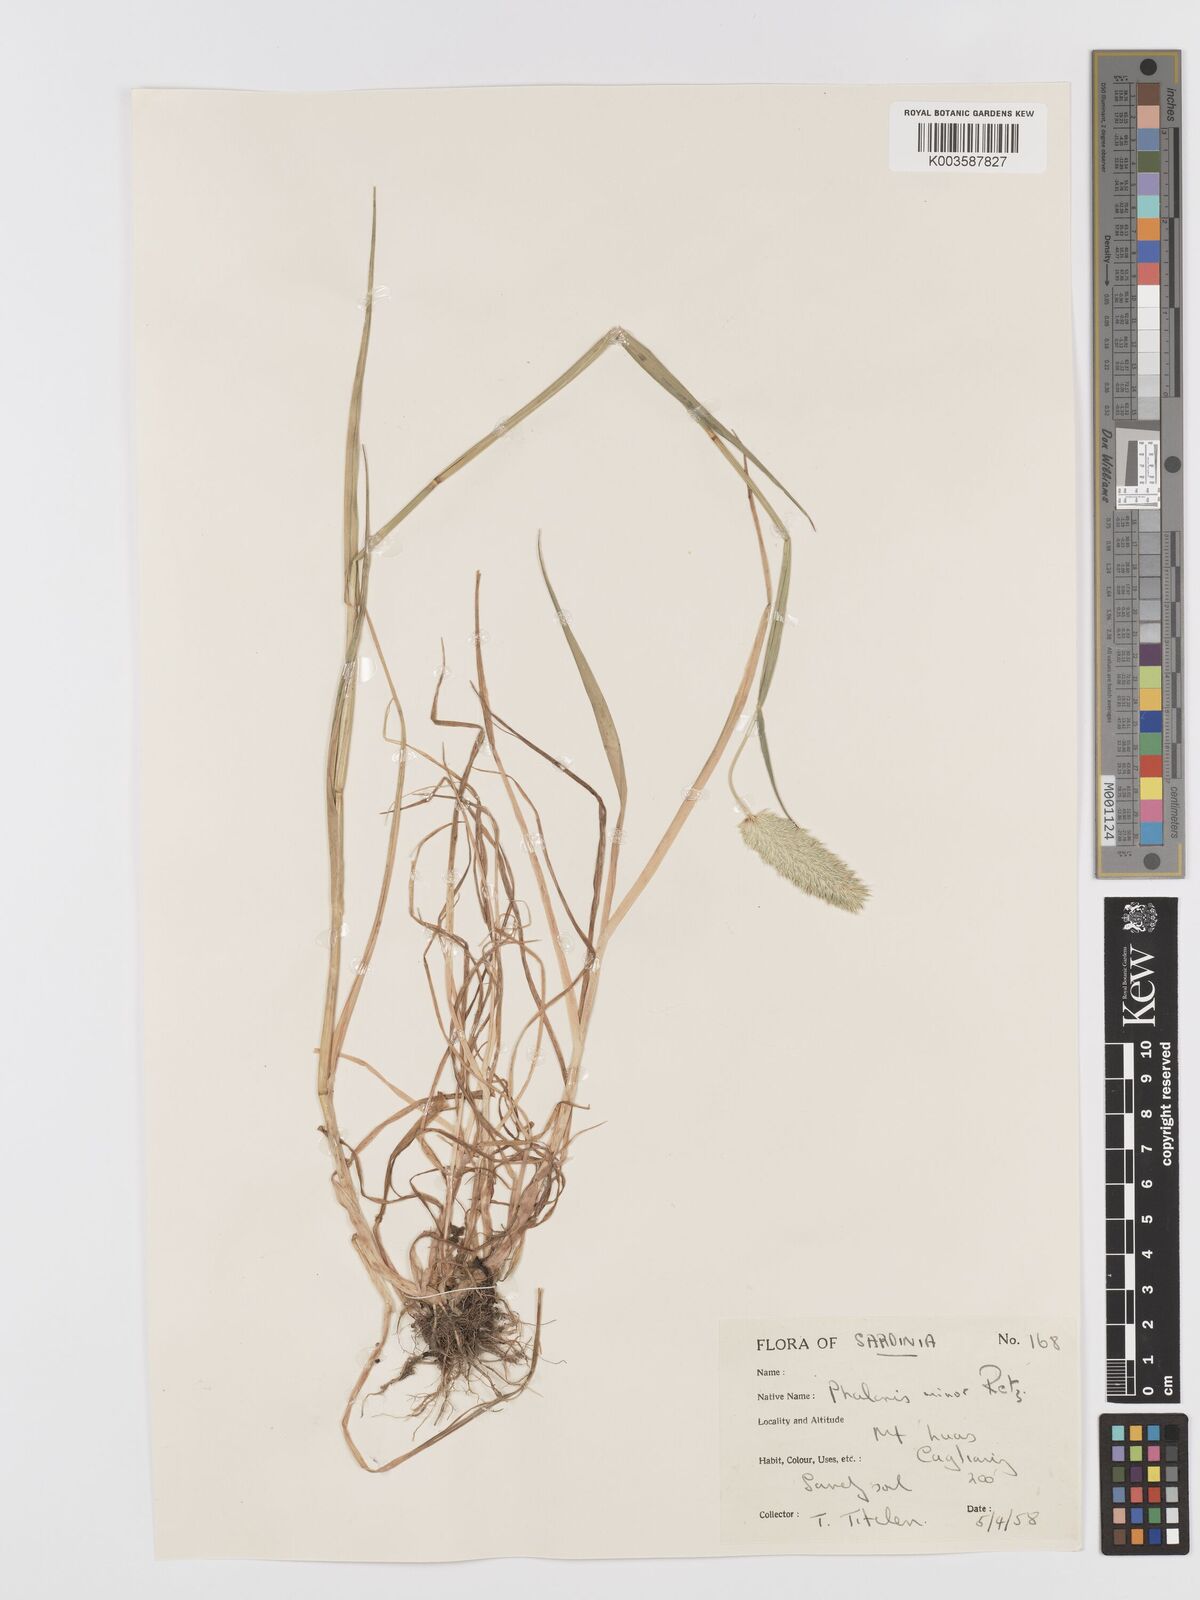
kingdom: Plantae
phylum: Tracheophyta
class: Liliopsida
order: Poales
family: Poaceae
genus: Phalaris
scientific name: Phalaris minor
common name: Littleseed canarygrass
